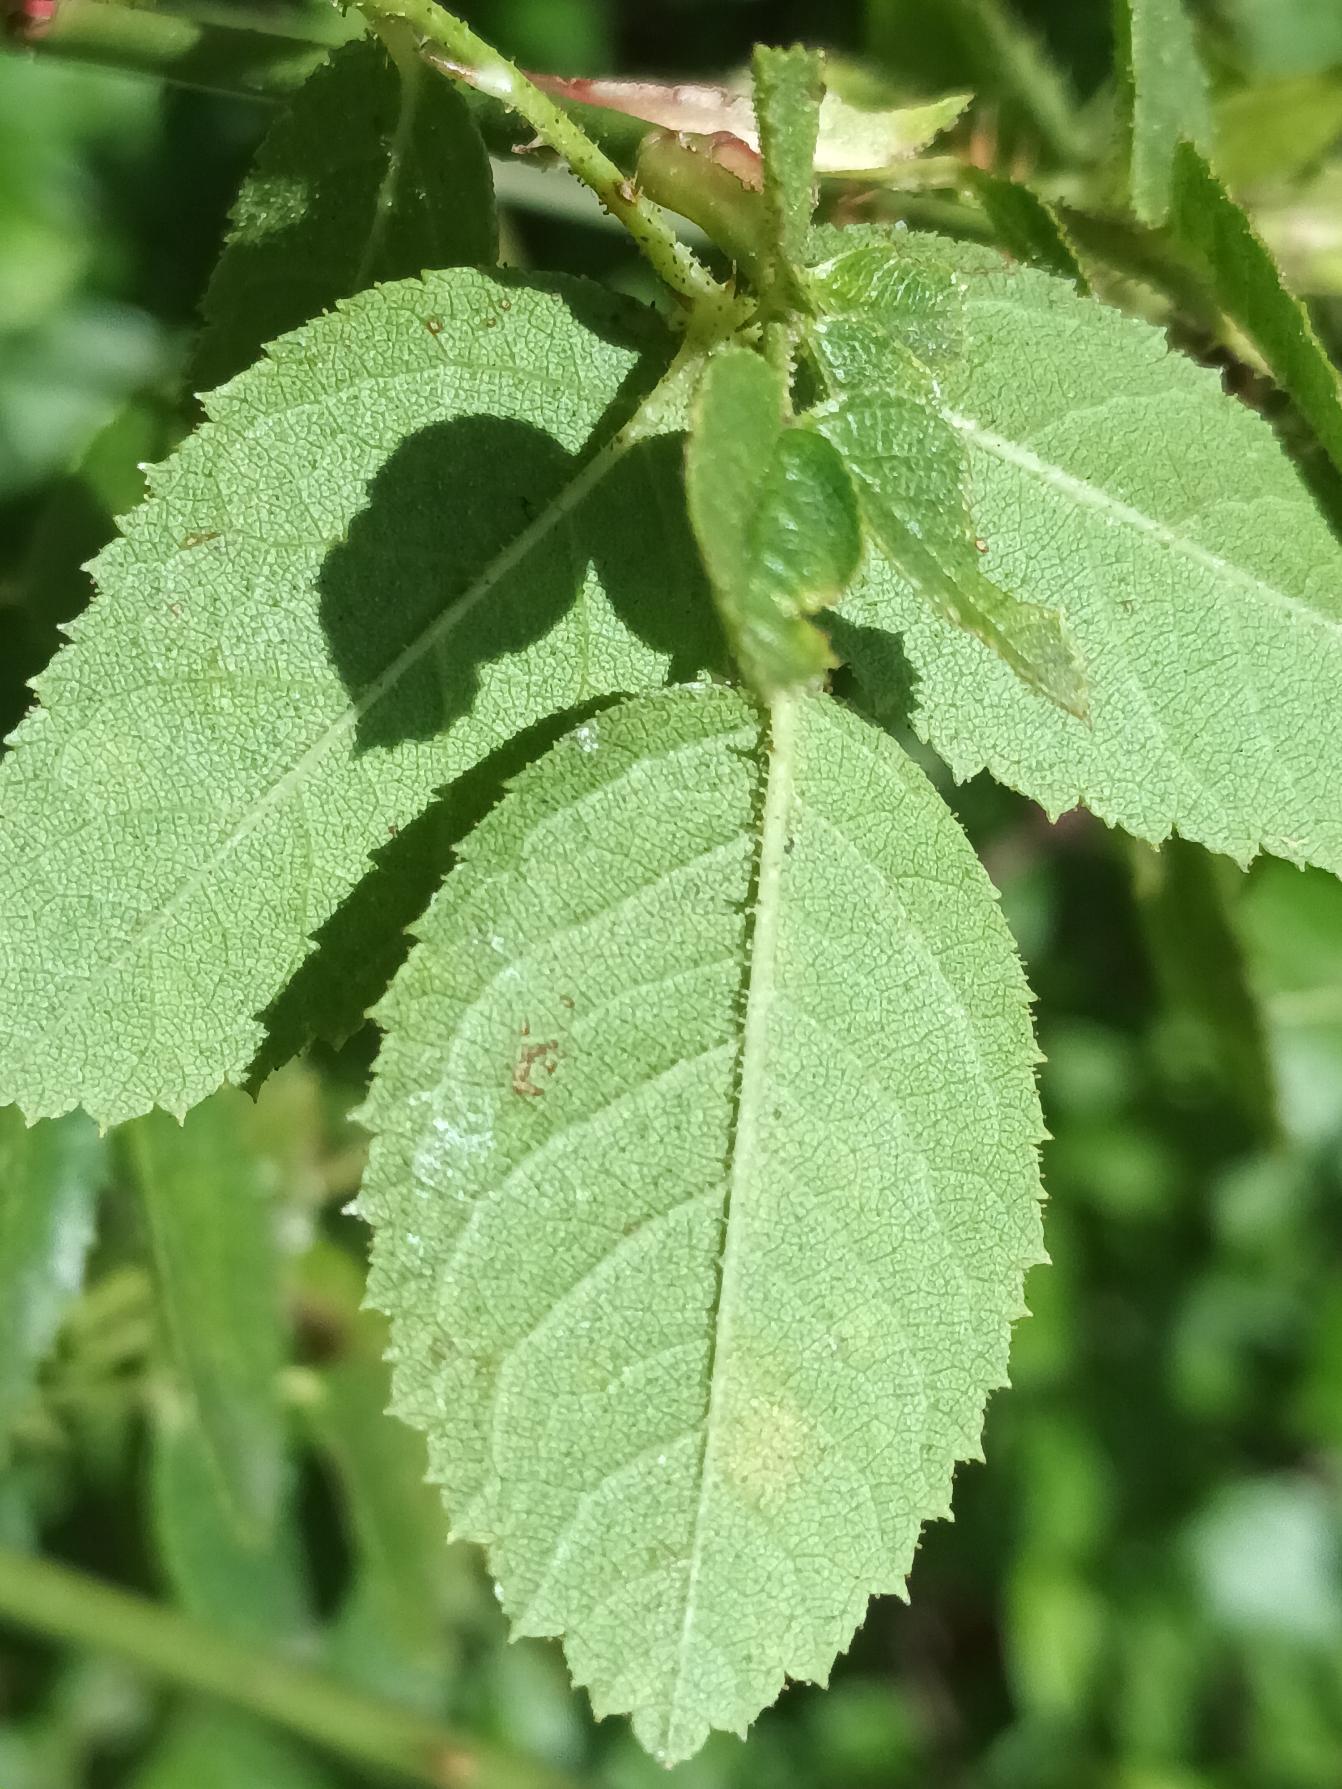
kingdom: Plantae
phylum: Tracheophyta
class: Magnoliopsida
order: Rosales
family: Rosaceae
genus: Rosa
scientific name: Rosa rubiginosa
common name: Æble-rose
